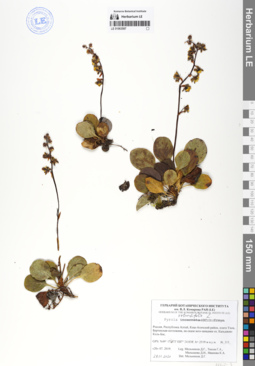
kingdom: Plantae
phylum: Tracheophyta
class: Magnoliopsida
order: Ericales
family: Ericaceae
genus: Pyrola
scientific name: Pyrola rotundifolia
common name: Round-leaved wintergreen
